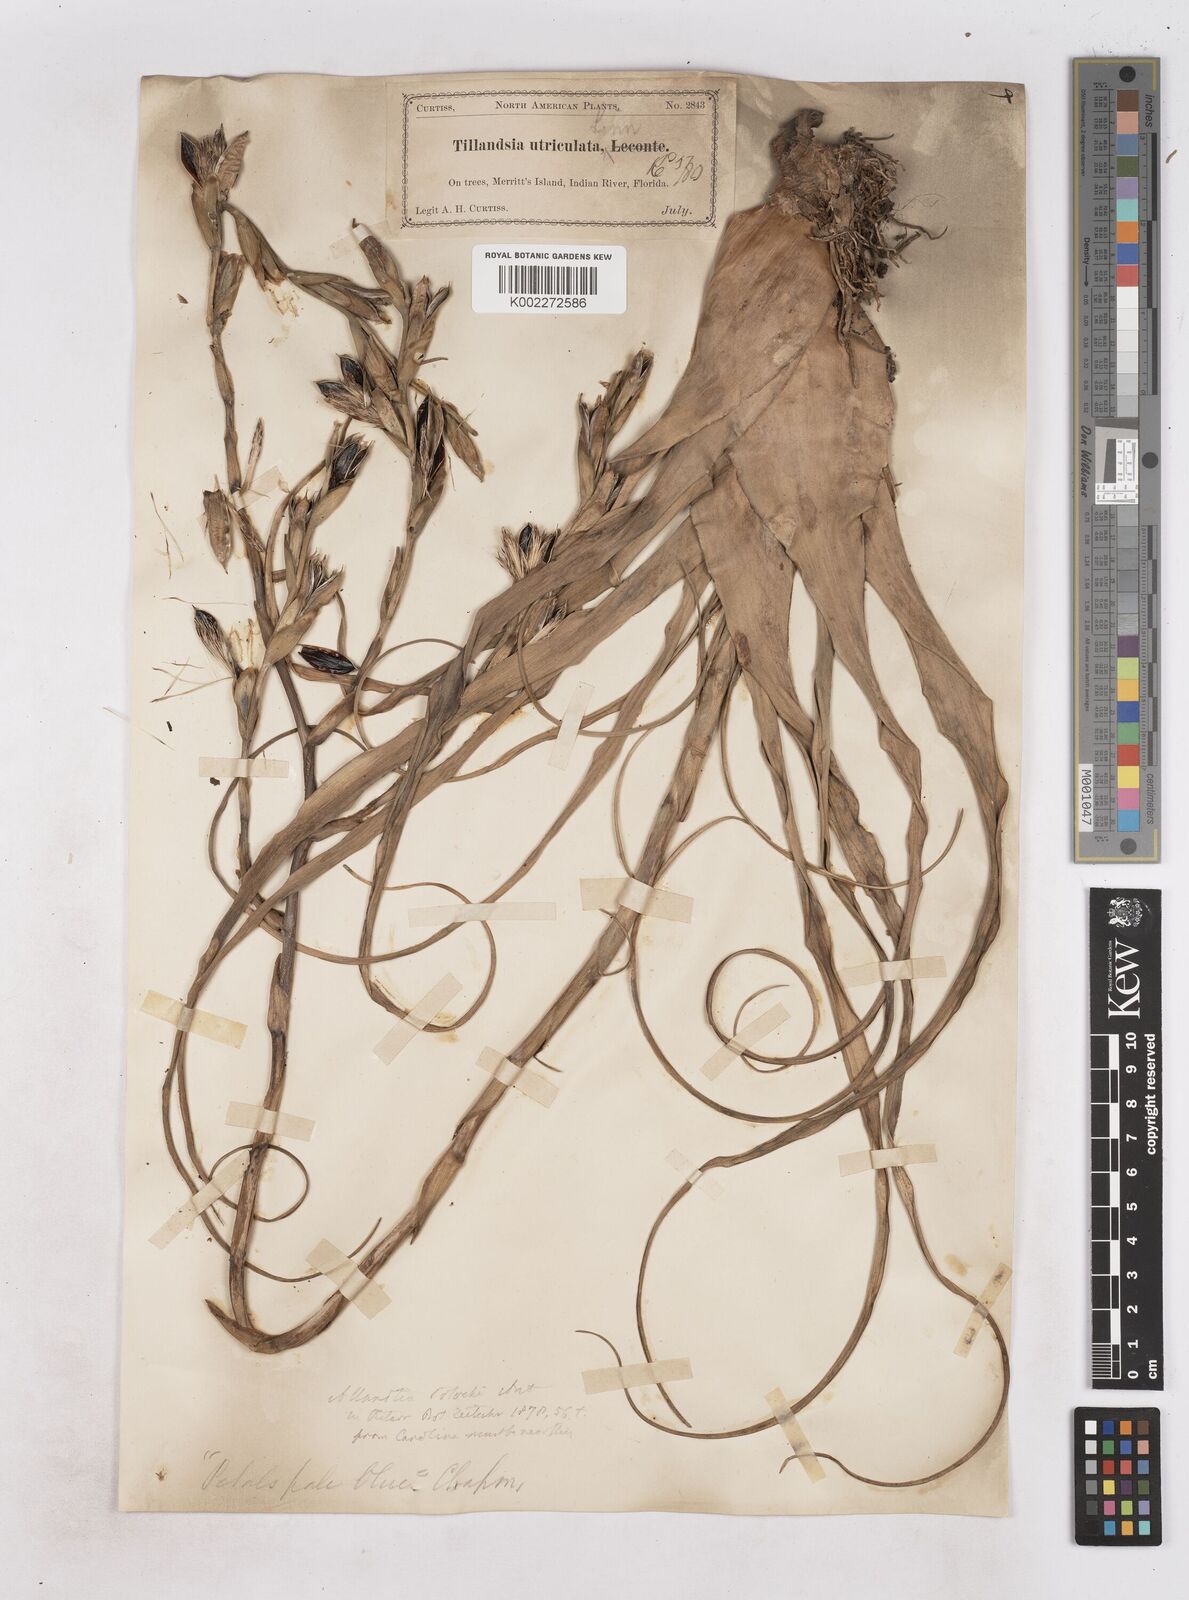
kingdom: Plantae
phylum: Tracheophyta
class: Liliopsida
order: Poales
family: Bromeliaceae
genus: Tillandsia
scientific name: Tillandsia utriculata
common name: Wild pine
